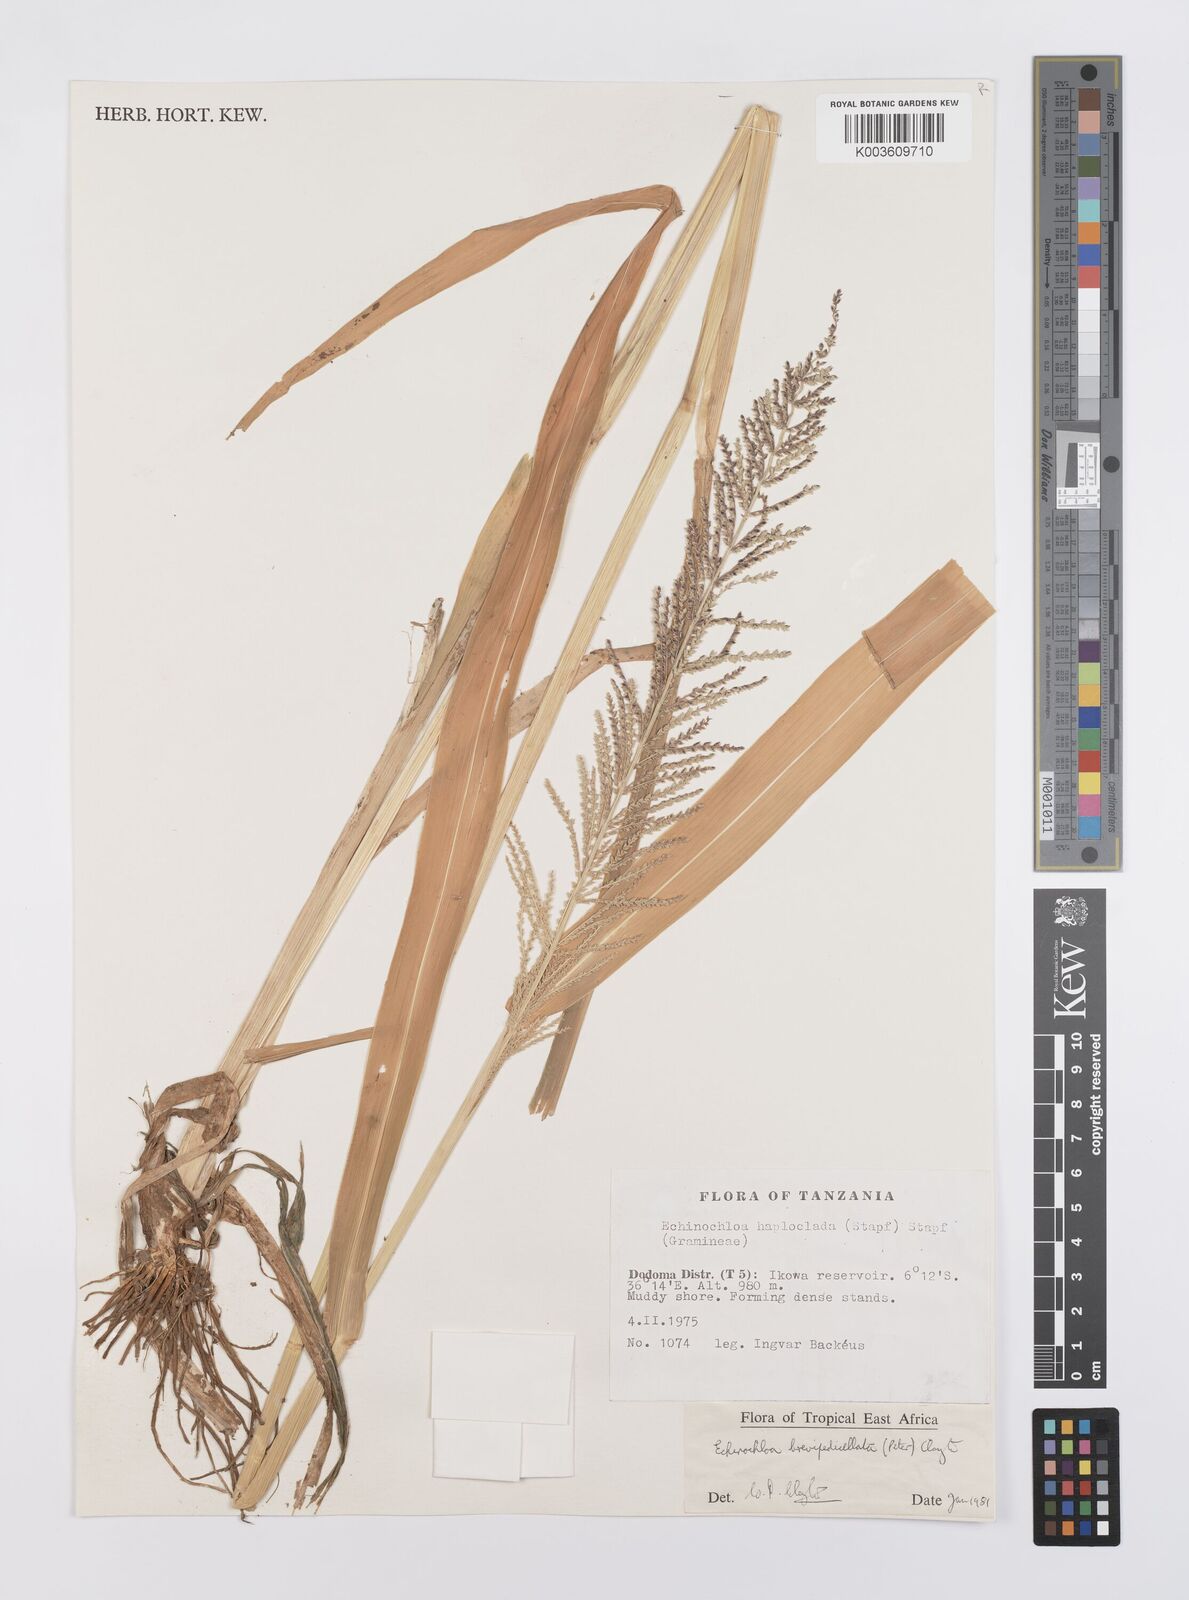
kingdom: Plantae
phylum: Tracheophyta
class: Liliopsida
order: Poales
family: Poaceae
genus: Echinochloa
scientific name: Echinochloa brevipedicellata
